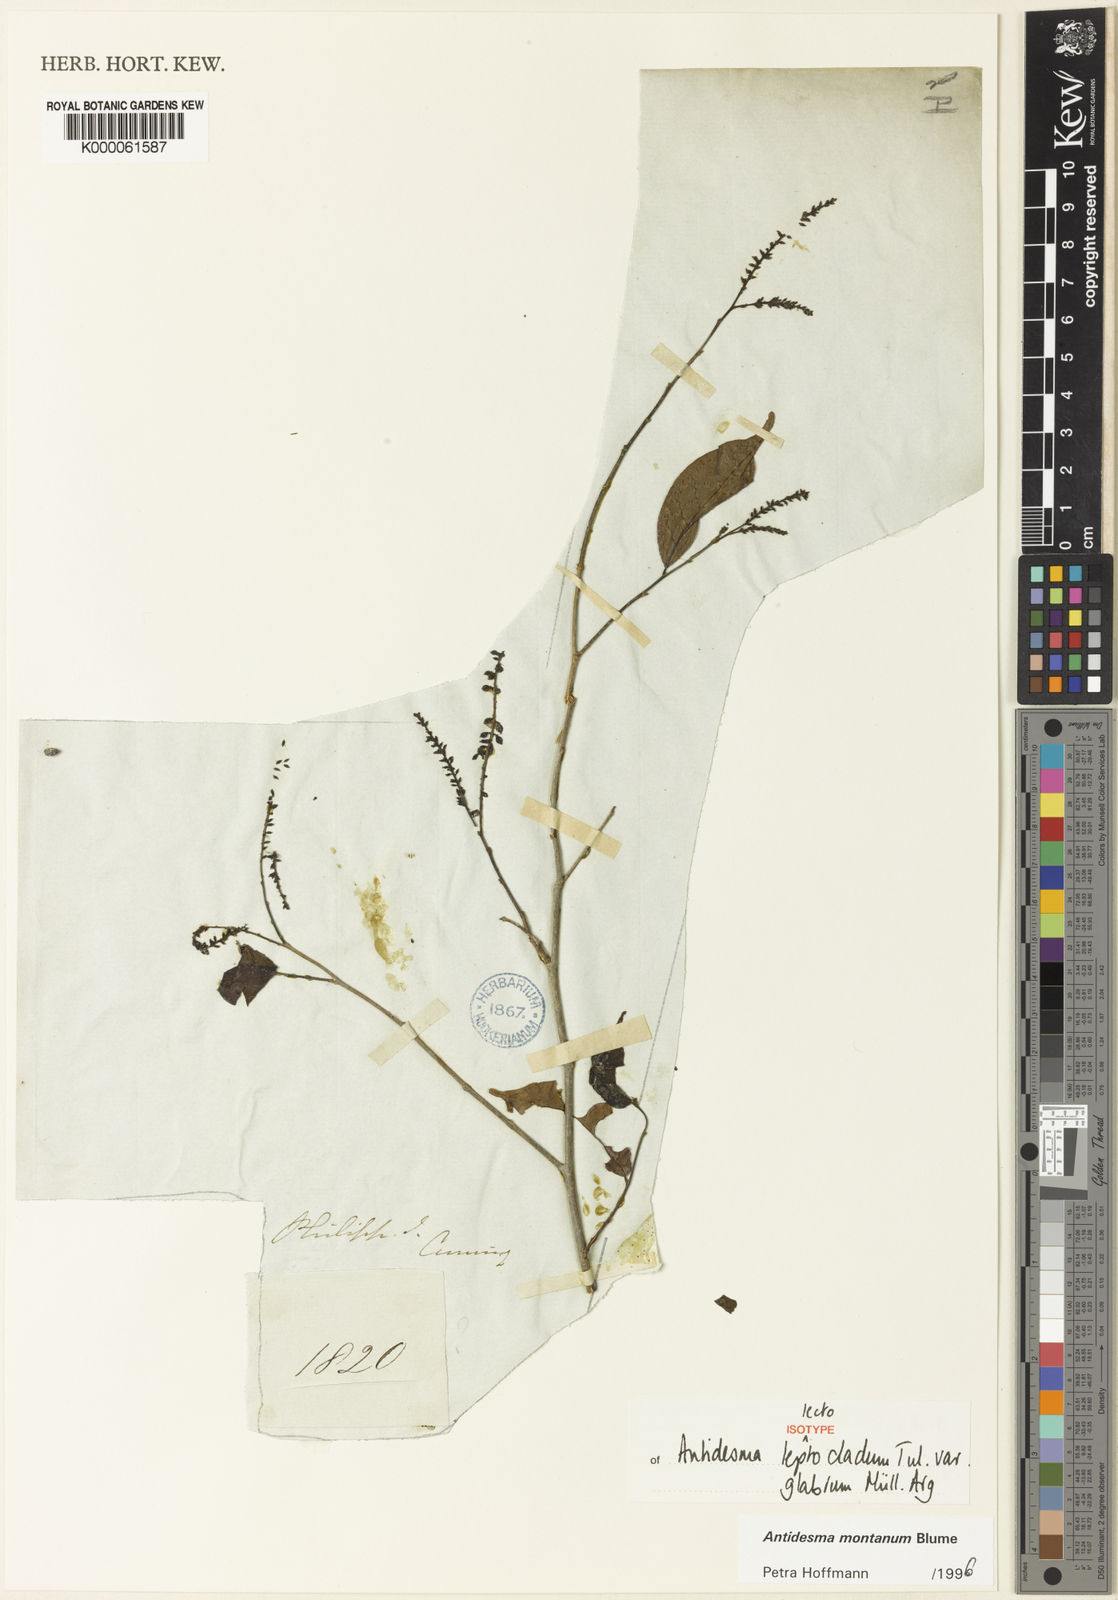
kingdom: Plantae
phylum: Tracheophyta
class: Magnoliopsida
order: Malpighiales
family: Phyllanthaceae
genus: Antidesma
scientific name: Antidesma montanum
